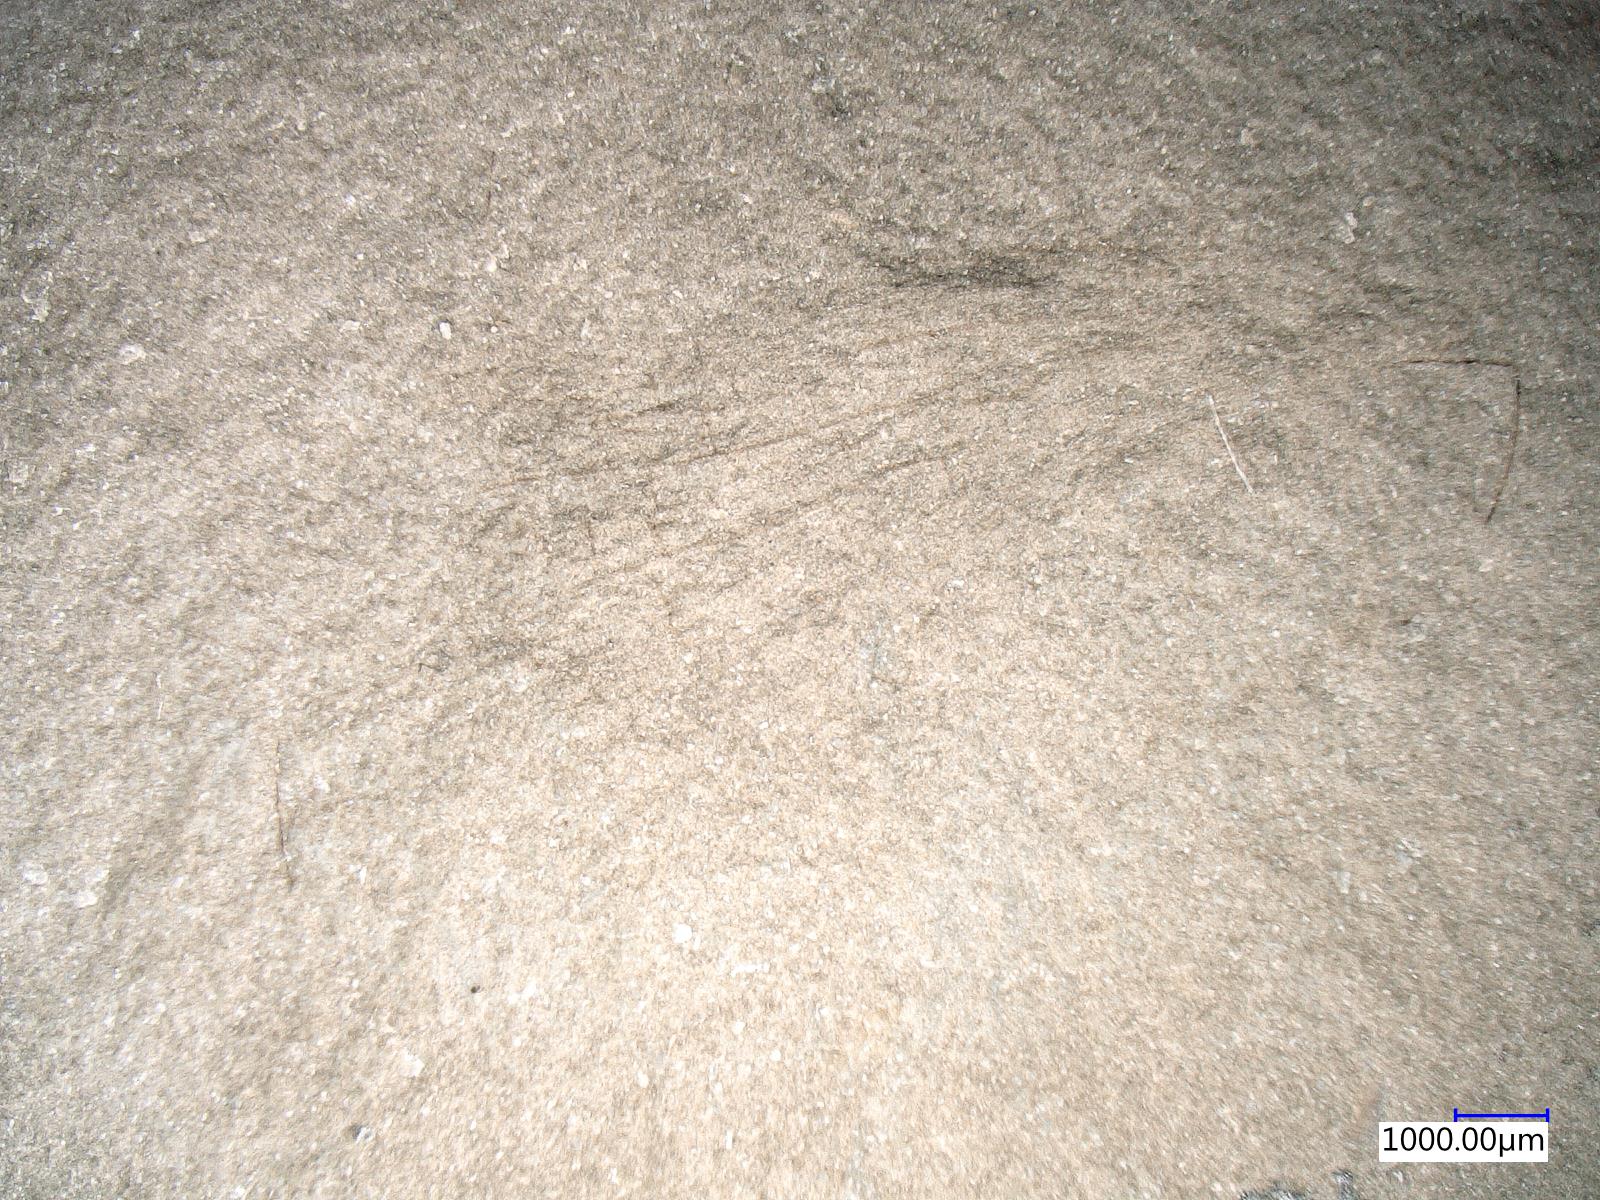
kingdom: Animalia
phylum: Arthropoda
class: Insecta
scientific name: Insecta
